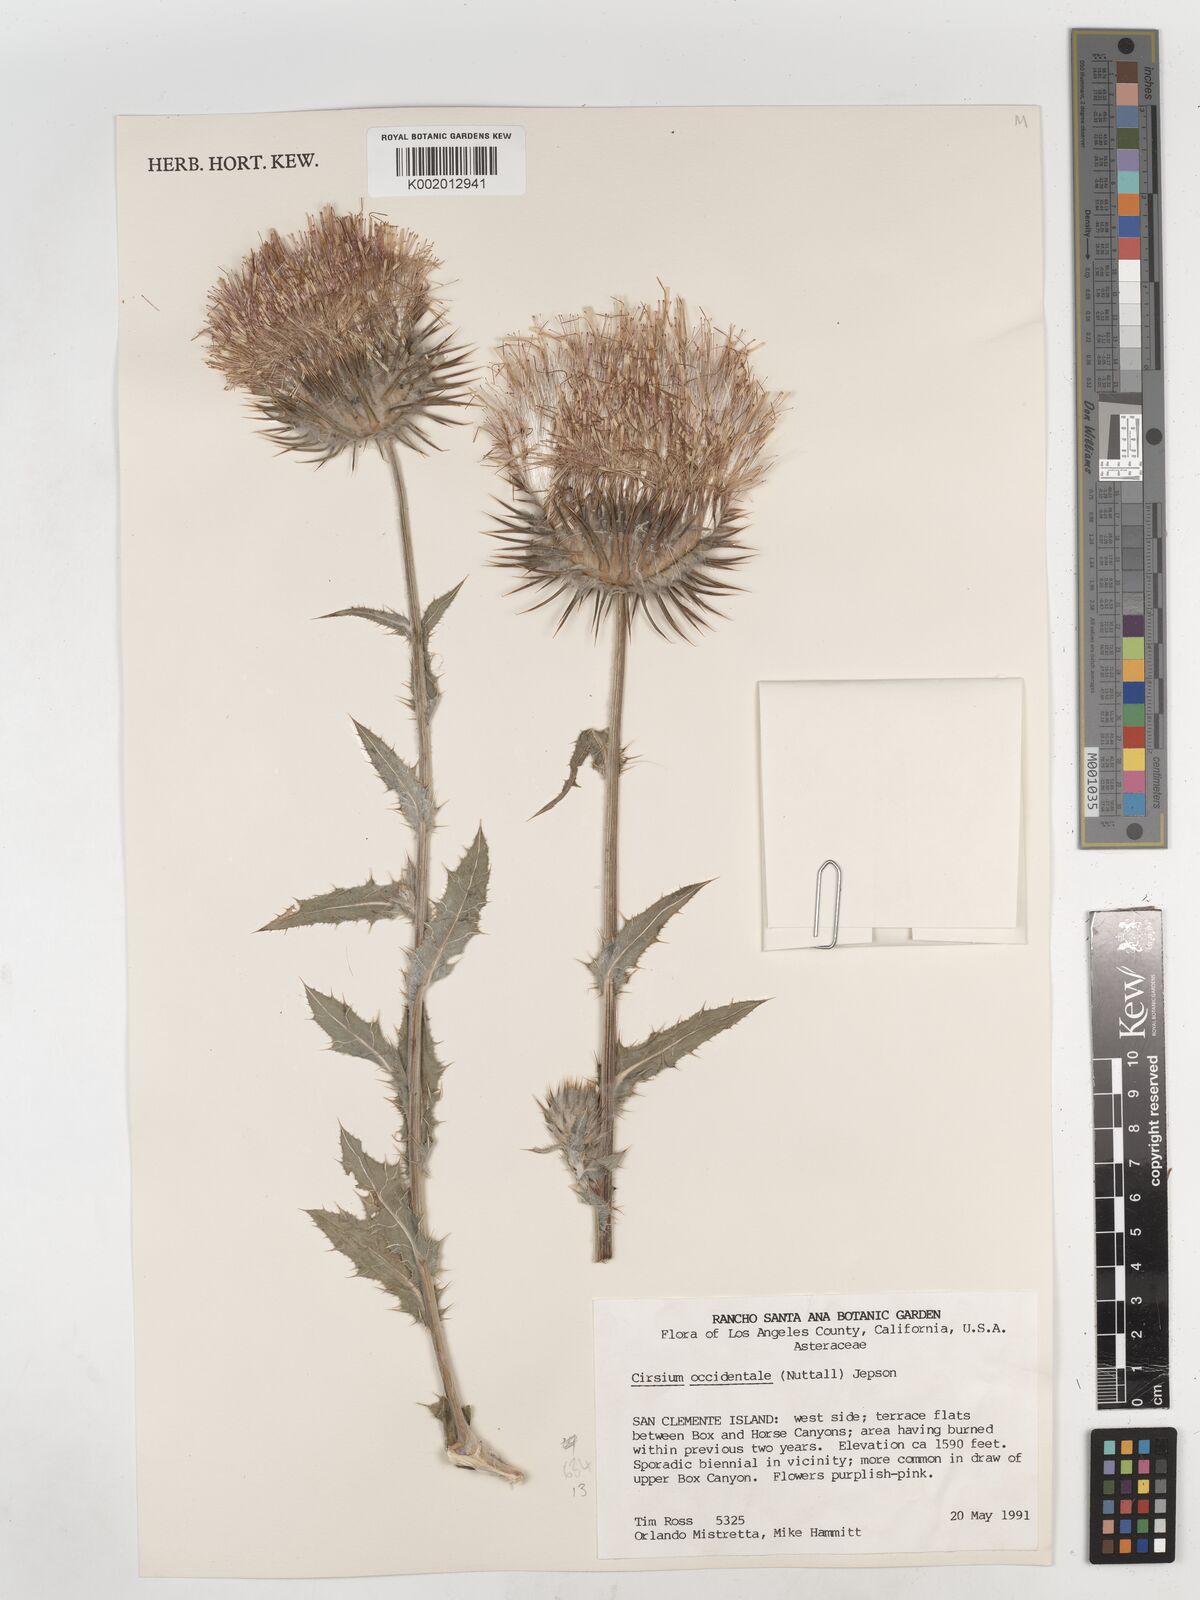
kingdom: Plantae
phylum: Tracheophyta
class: Magnoliopsida
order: Asterales
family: Asteraceae
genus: Cirsium
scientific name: Cirsium occidentale
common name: Western thistle
